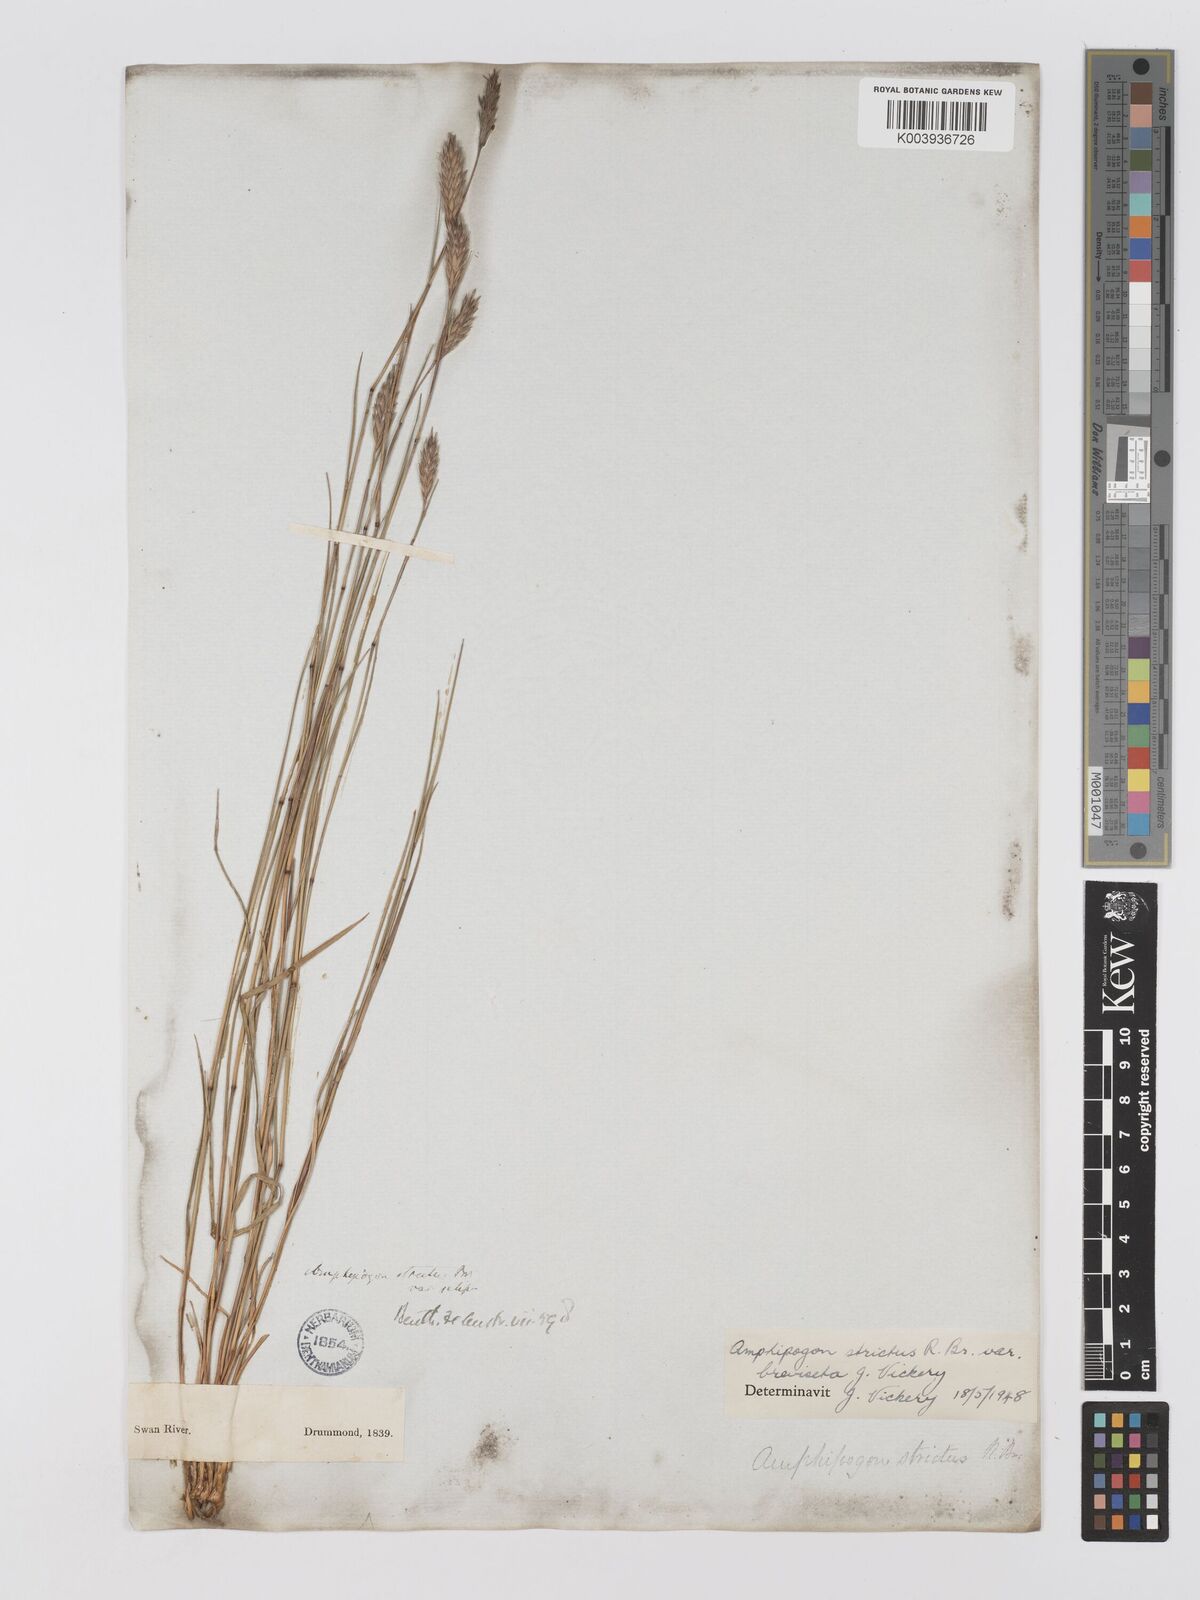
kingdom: Plantae
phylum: Tracheophyta
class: Liliopsida
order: Poales
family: Poaceae
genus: Amphipogon
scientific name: Amphipogon strictus
